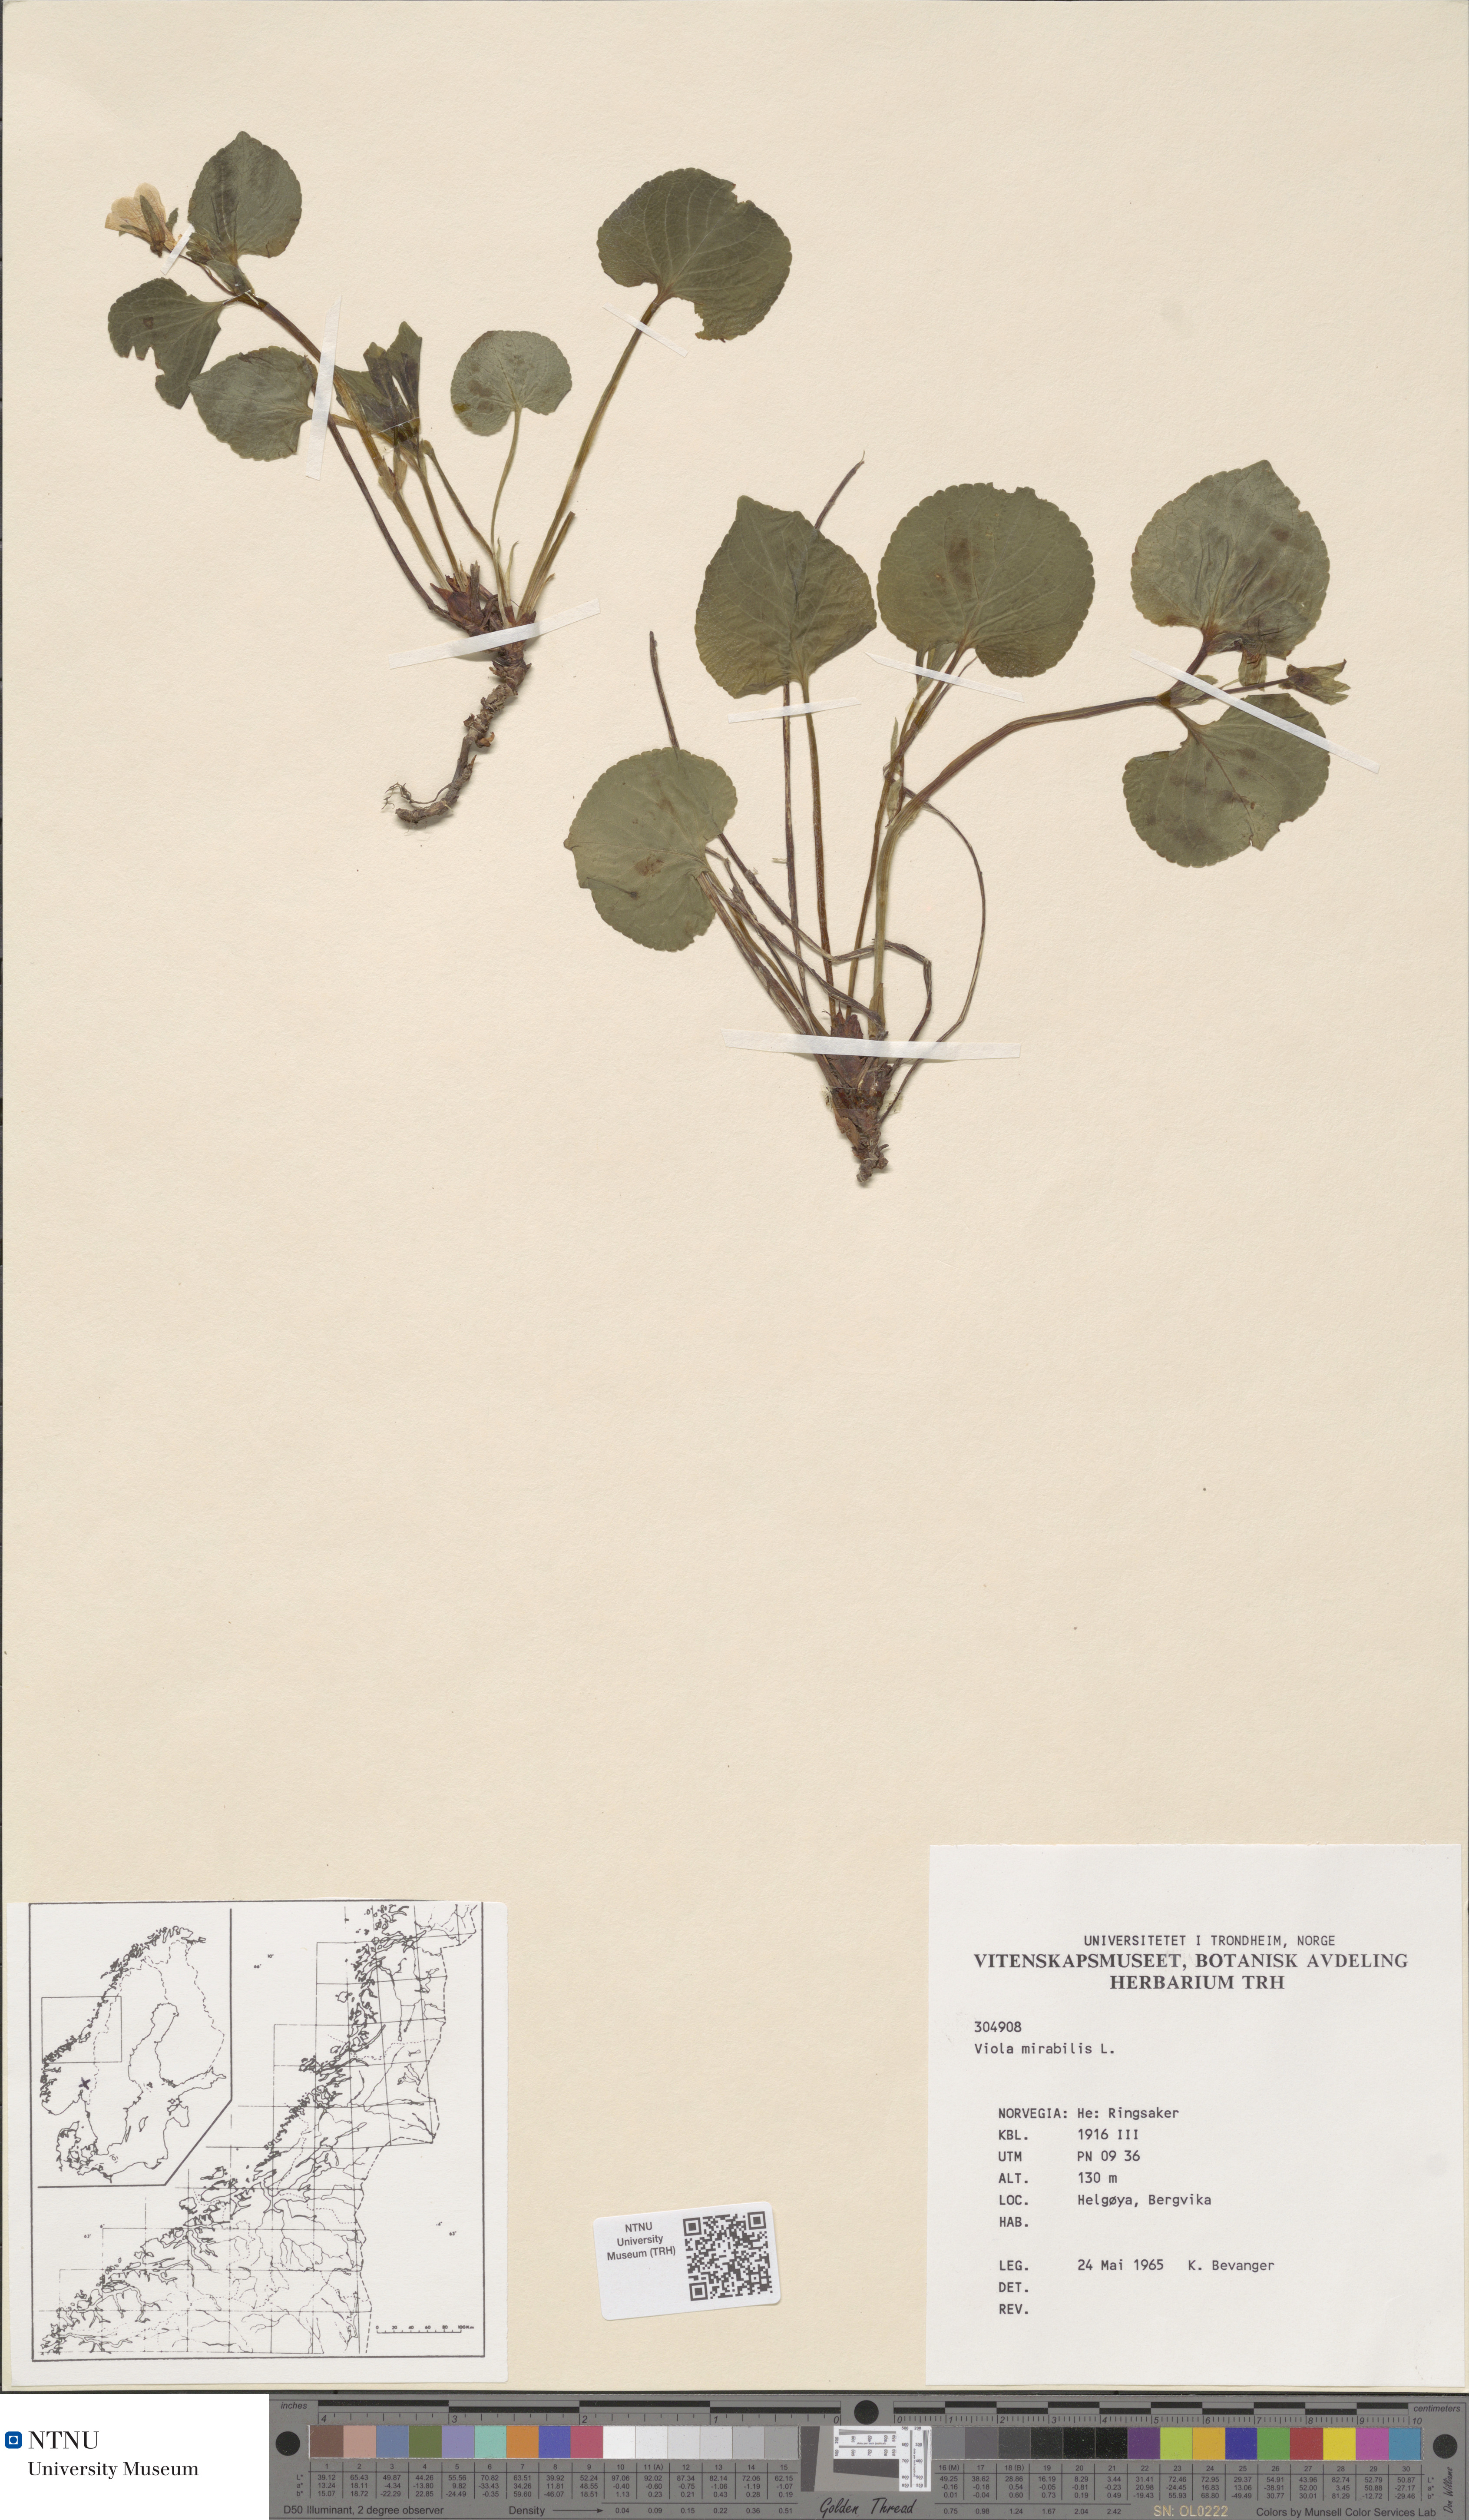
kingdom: Plantae
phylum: Tracheophyta
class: Magnoliopsida
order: Malpighiales
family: Violaceae
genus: Viola
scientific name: Viola mirabilis
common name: Wonder violet
